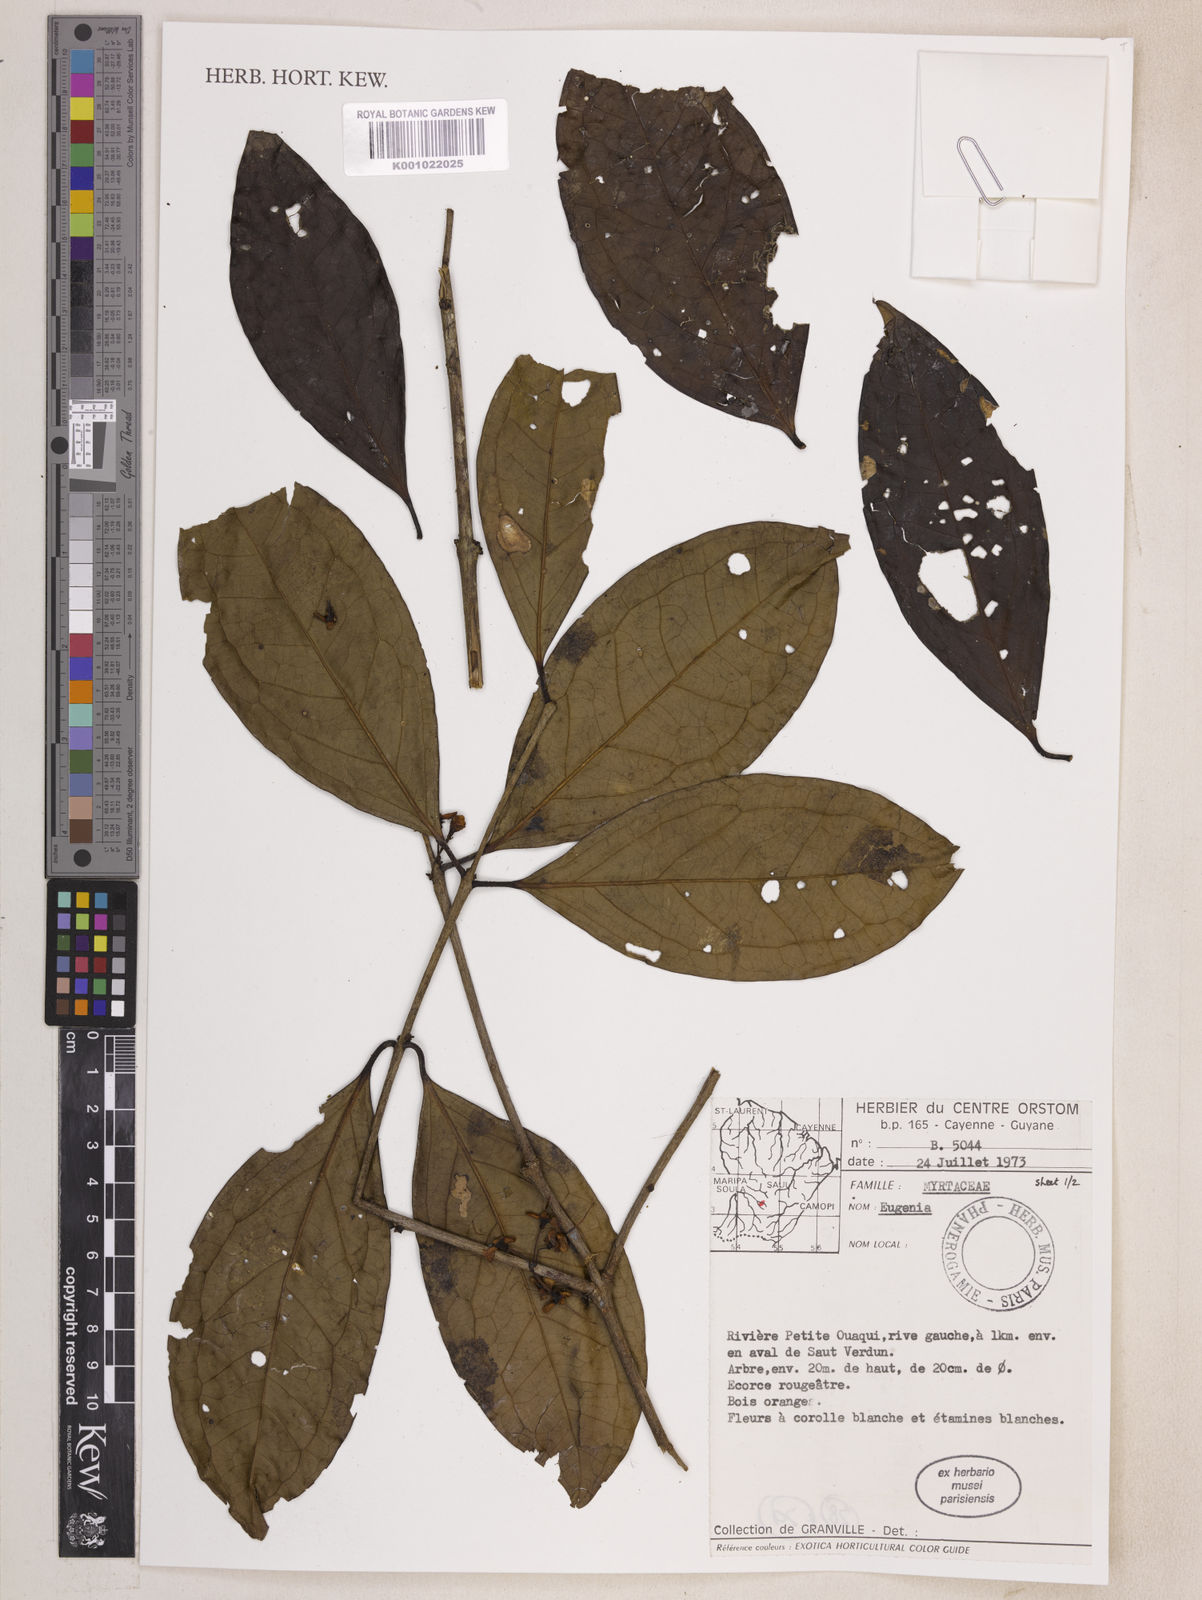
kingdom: Plantae
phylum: Tracheophyta
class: Magnoliopsida
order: Myrtales
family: Myrtaceae
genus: Eugenia
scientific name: Eugenia anastomosans
